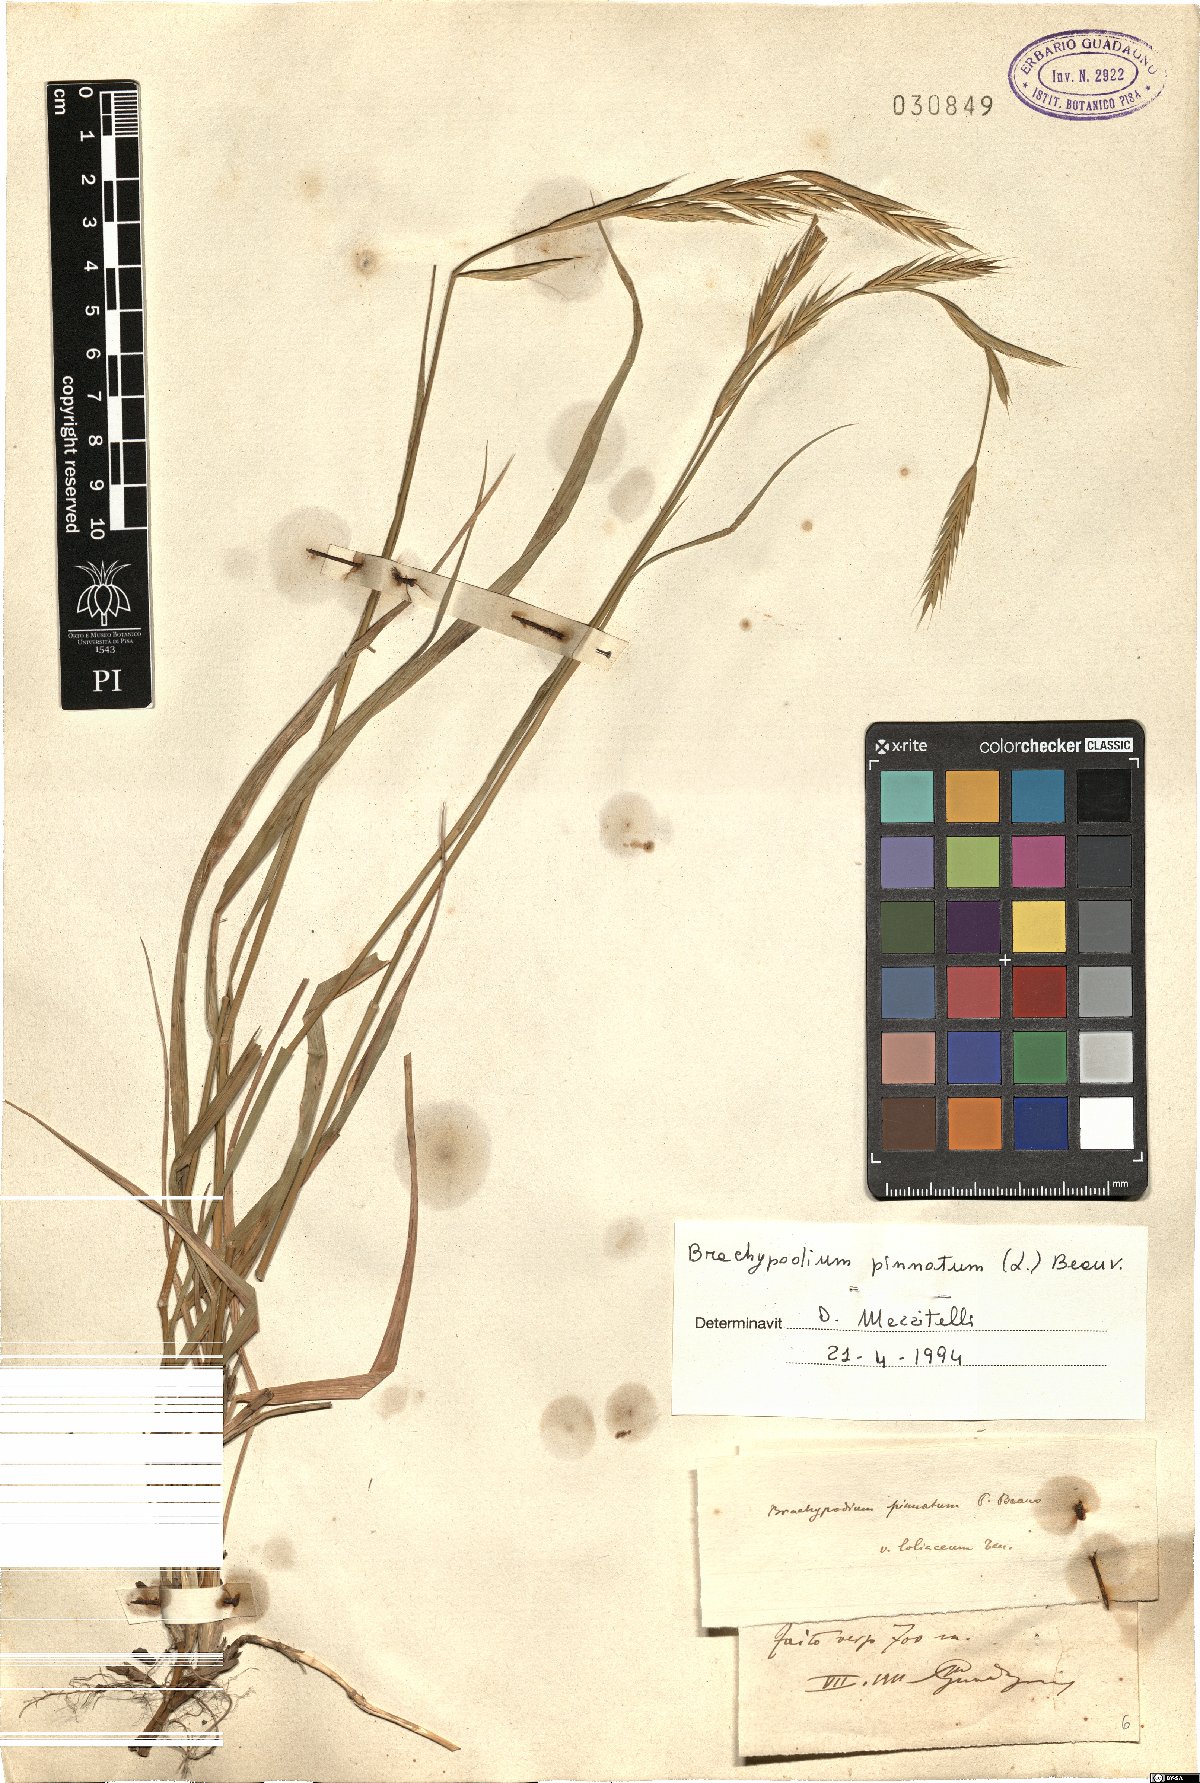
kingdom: Plantae
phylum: Tracheophyta
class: Liliopsida
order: Poales
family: Poaceae
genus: Brachypodium
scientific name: Brachypodium pinnatum
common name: Tor grass
